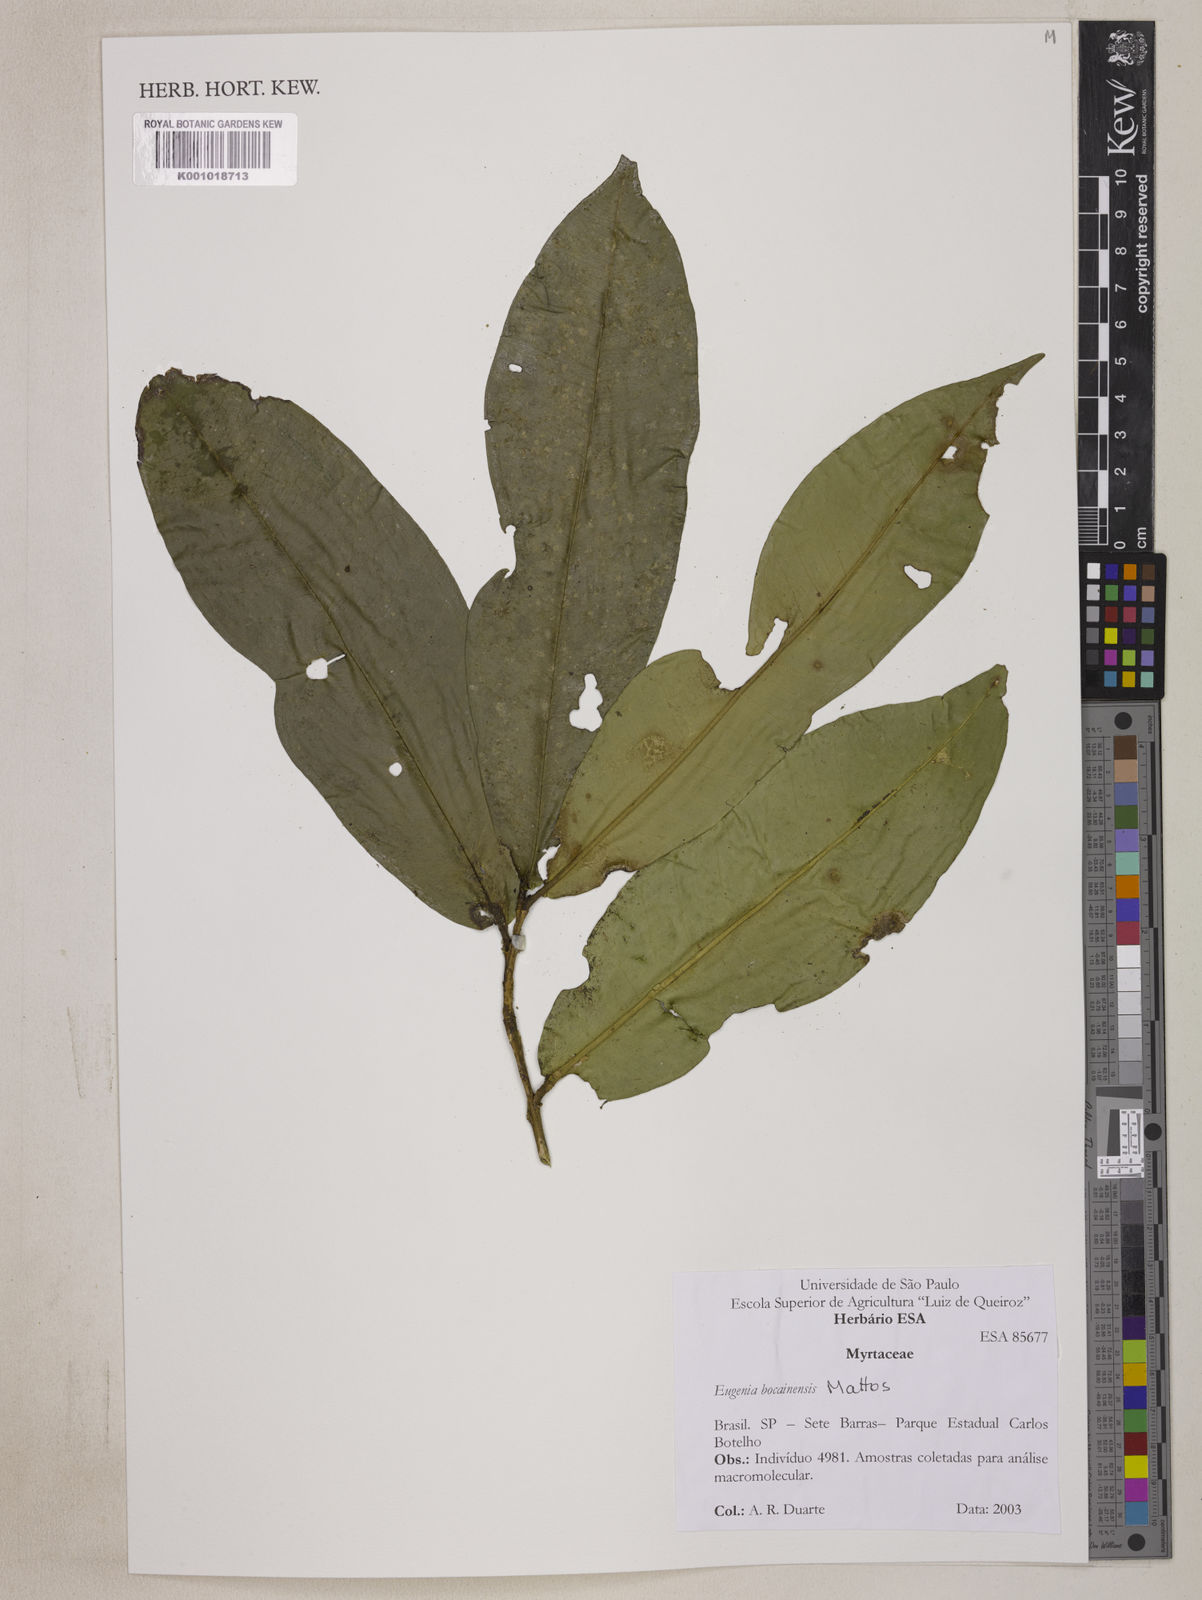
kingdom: Plantae
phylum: Tracheophyta
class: Magnoliopsida
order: Myrtales
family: Myrtaceae
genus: Eugenia
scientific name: Eugenia membranifolia
